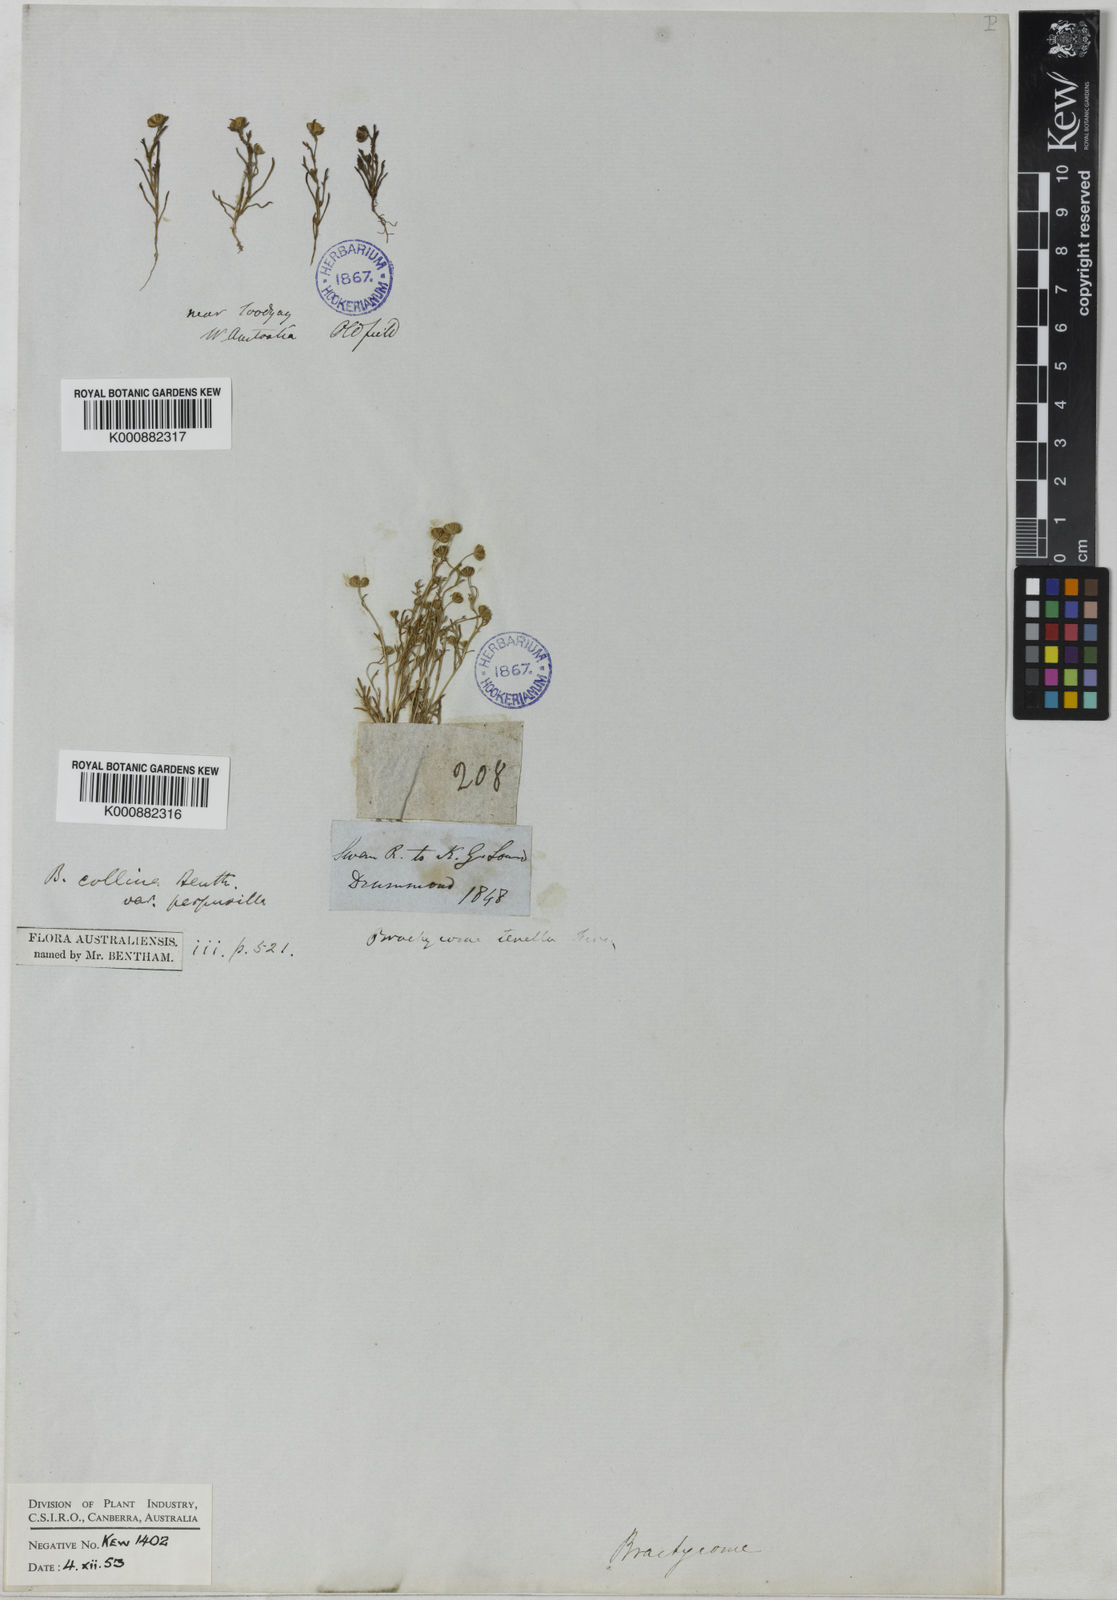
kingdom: Plantae
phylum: Tracheophyta
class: Magnoliopsida
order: Asterales
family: Asteraceae
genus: Brachyscome
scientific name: Brachyscome perpusilla
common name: Tiny daisy
